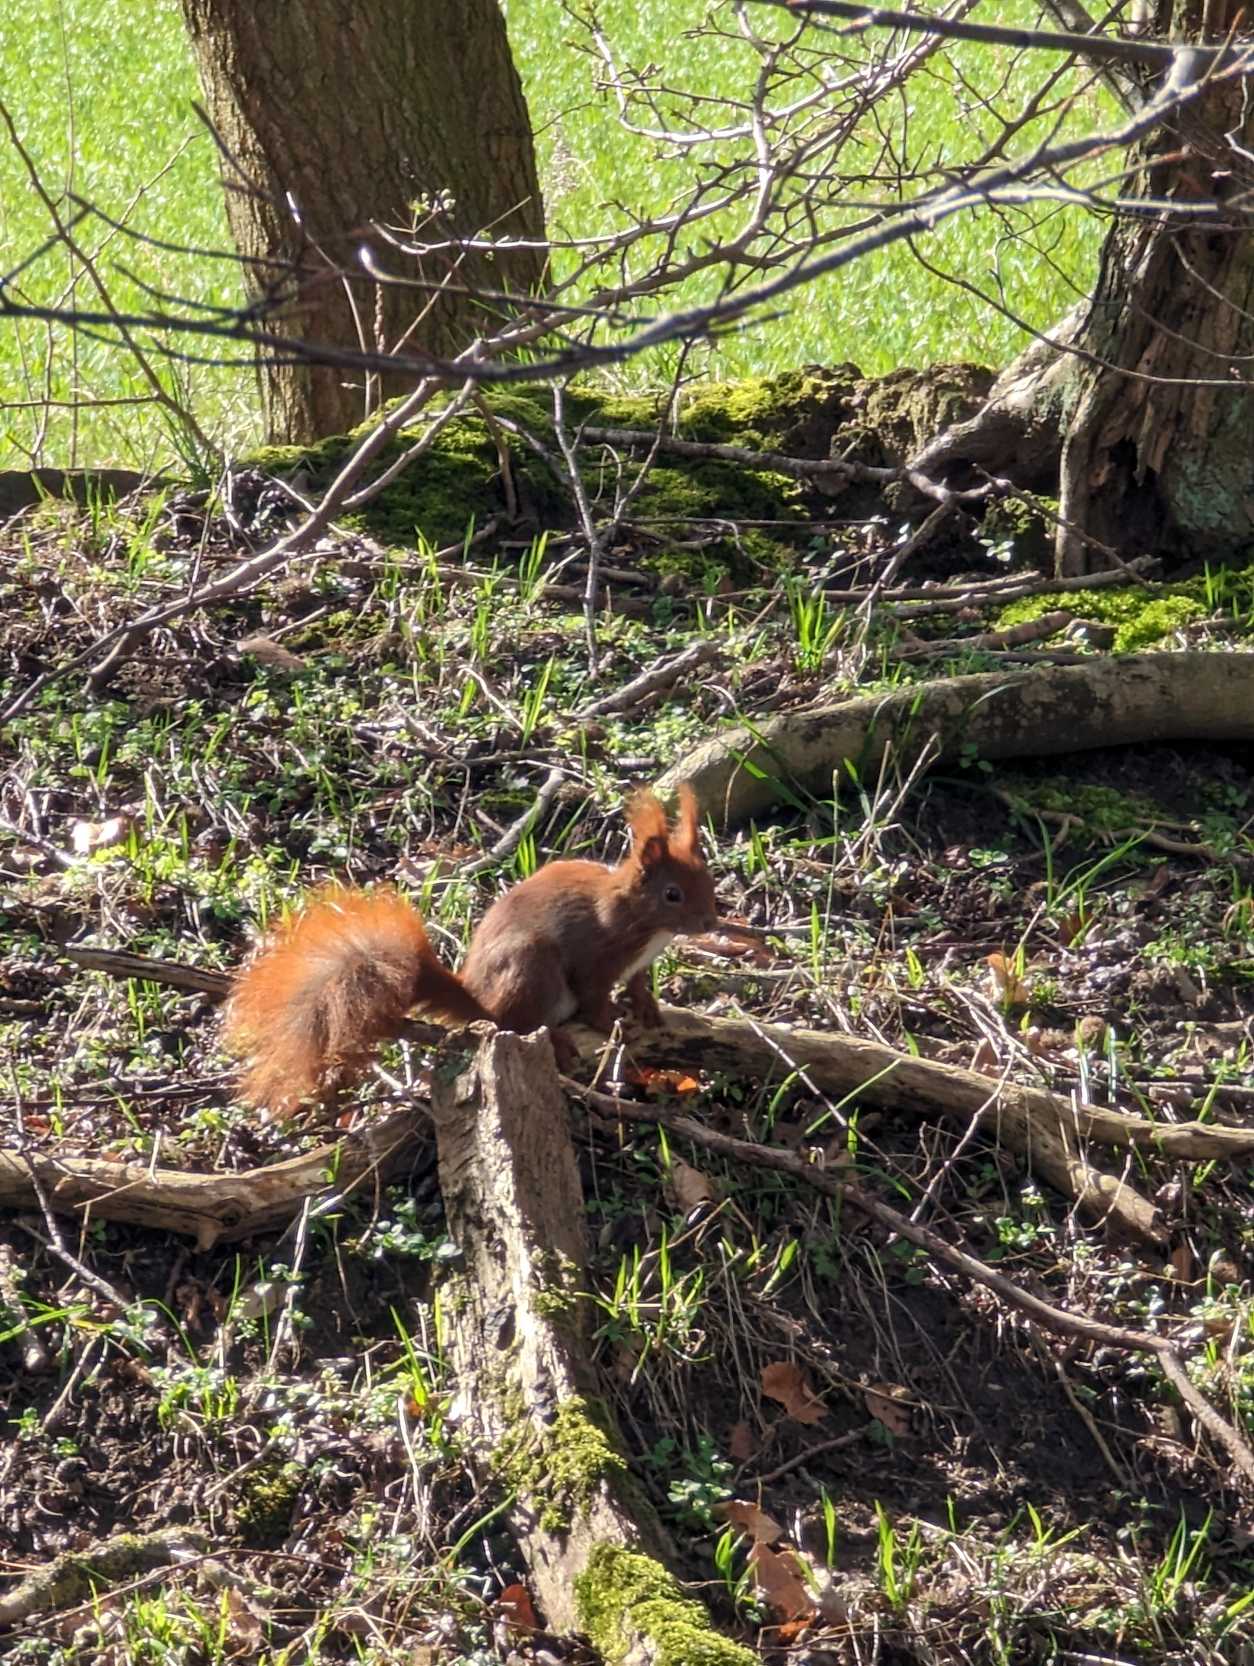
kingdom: Animalia
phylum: Chordata
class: Mammalia
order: Rodentia
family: Sciuridae
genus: Sciurus
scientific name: Sciurus vulgaris
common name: Egern
